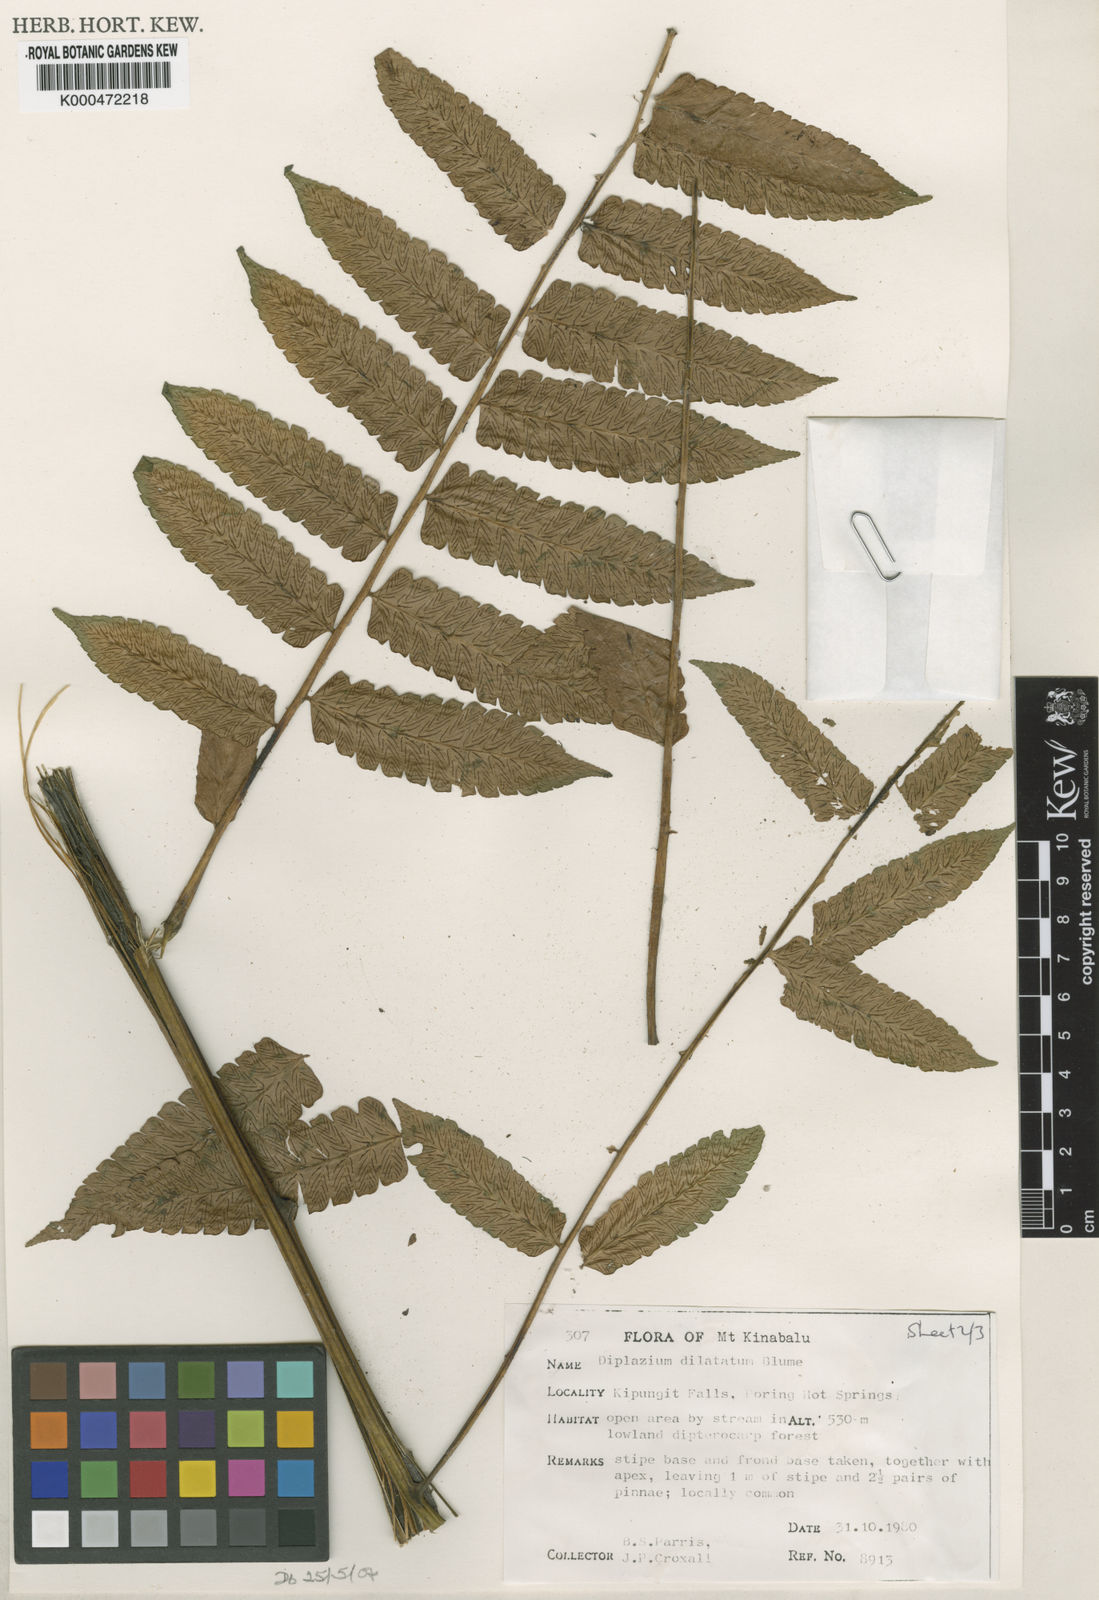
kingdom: Plantae
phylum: Tracheophyta
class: Polypodiopsida
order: Polypodiales
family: Athyriaceae
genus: Diplazium
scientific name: Diplazium dilatatum
